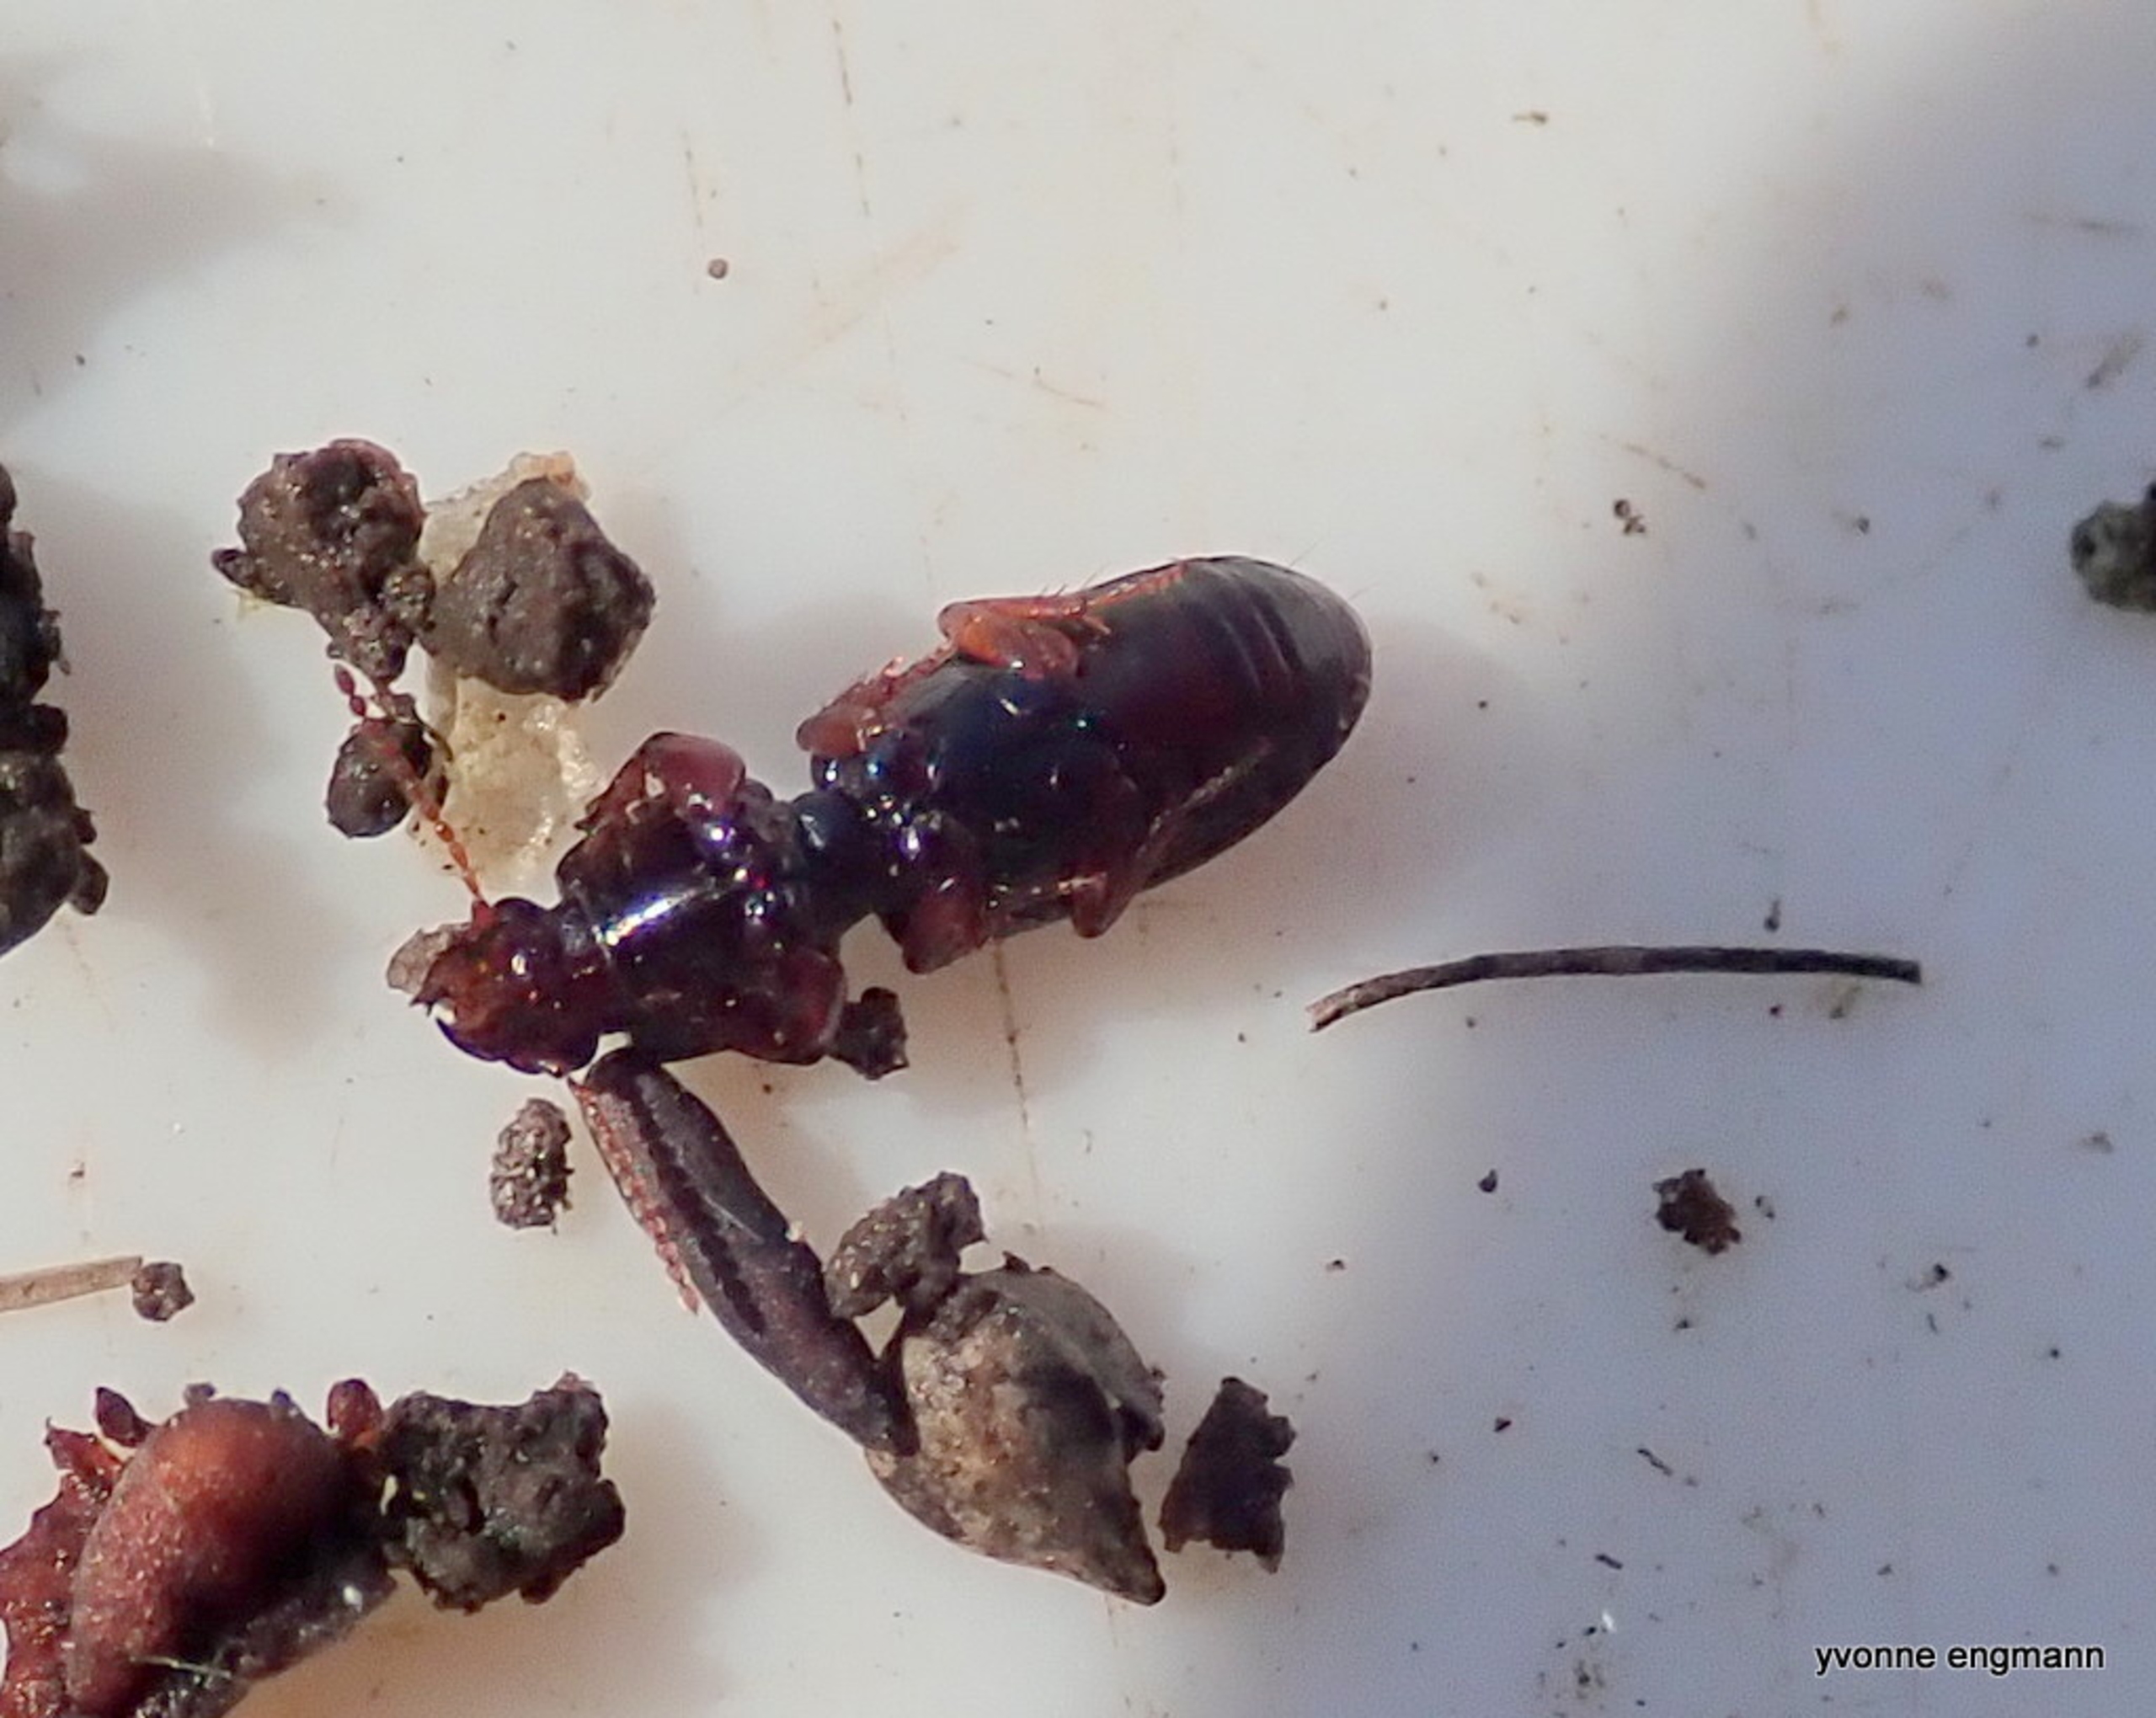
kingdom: Animalia
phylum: Arthropoda
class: Insecta
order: Coleoptera
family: Carabidae
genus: Clivina
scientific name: Clivina fossor
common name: Stor dovenløber
